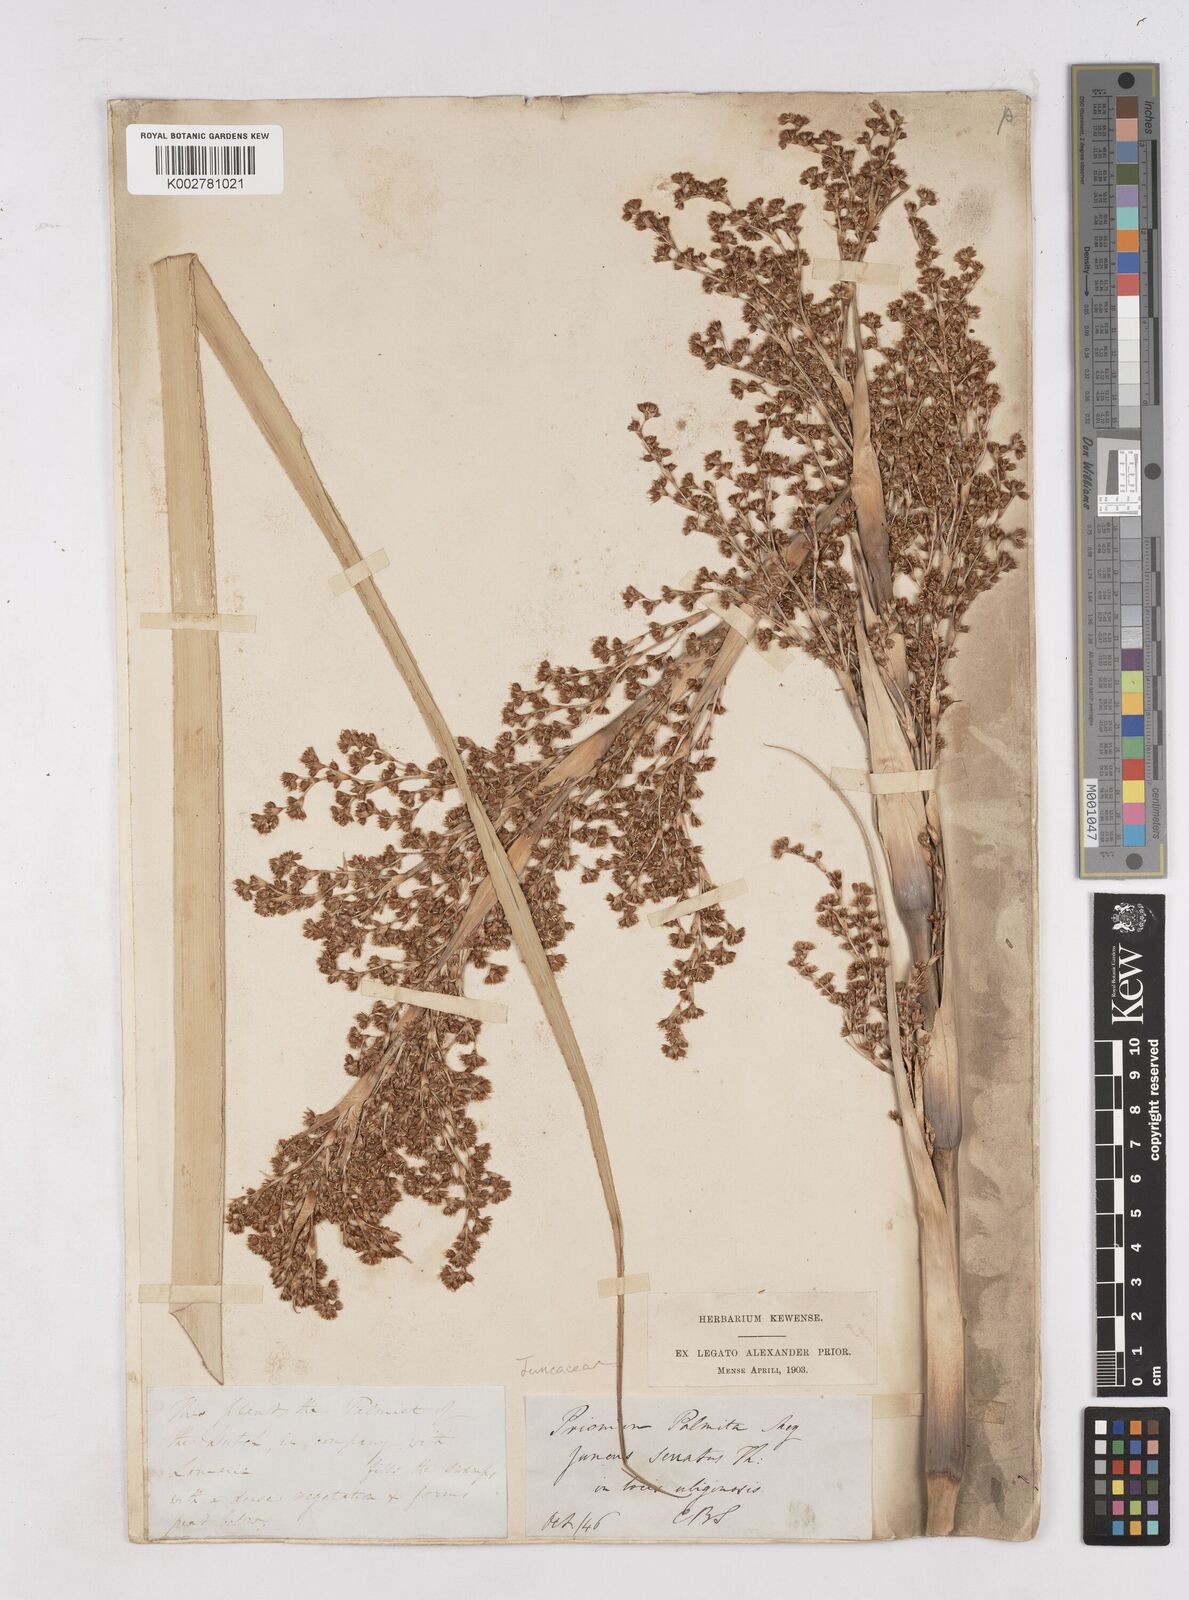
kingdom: Plantae
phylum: Tracheophyta
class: Liliopsida
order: Poales
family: Thurniaceae
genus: Prionium
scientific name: Prionium serratum
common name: Palmiet
